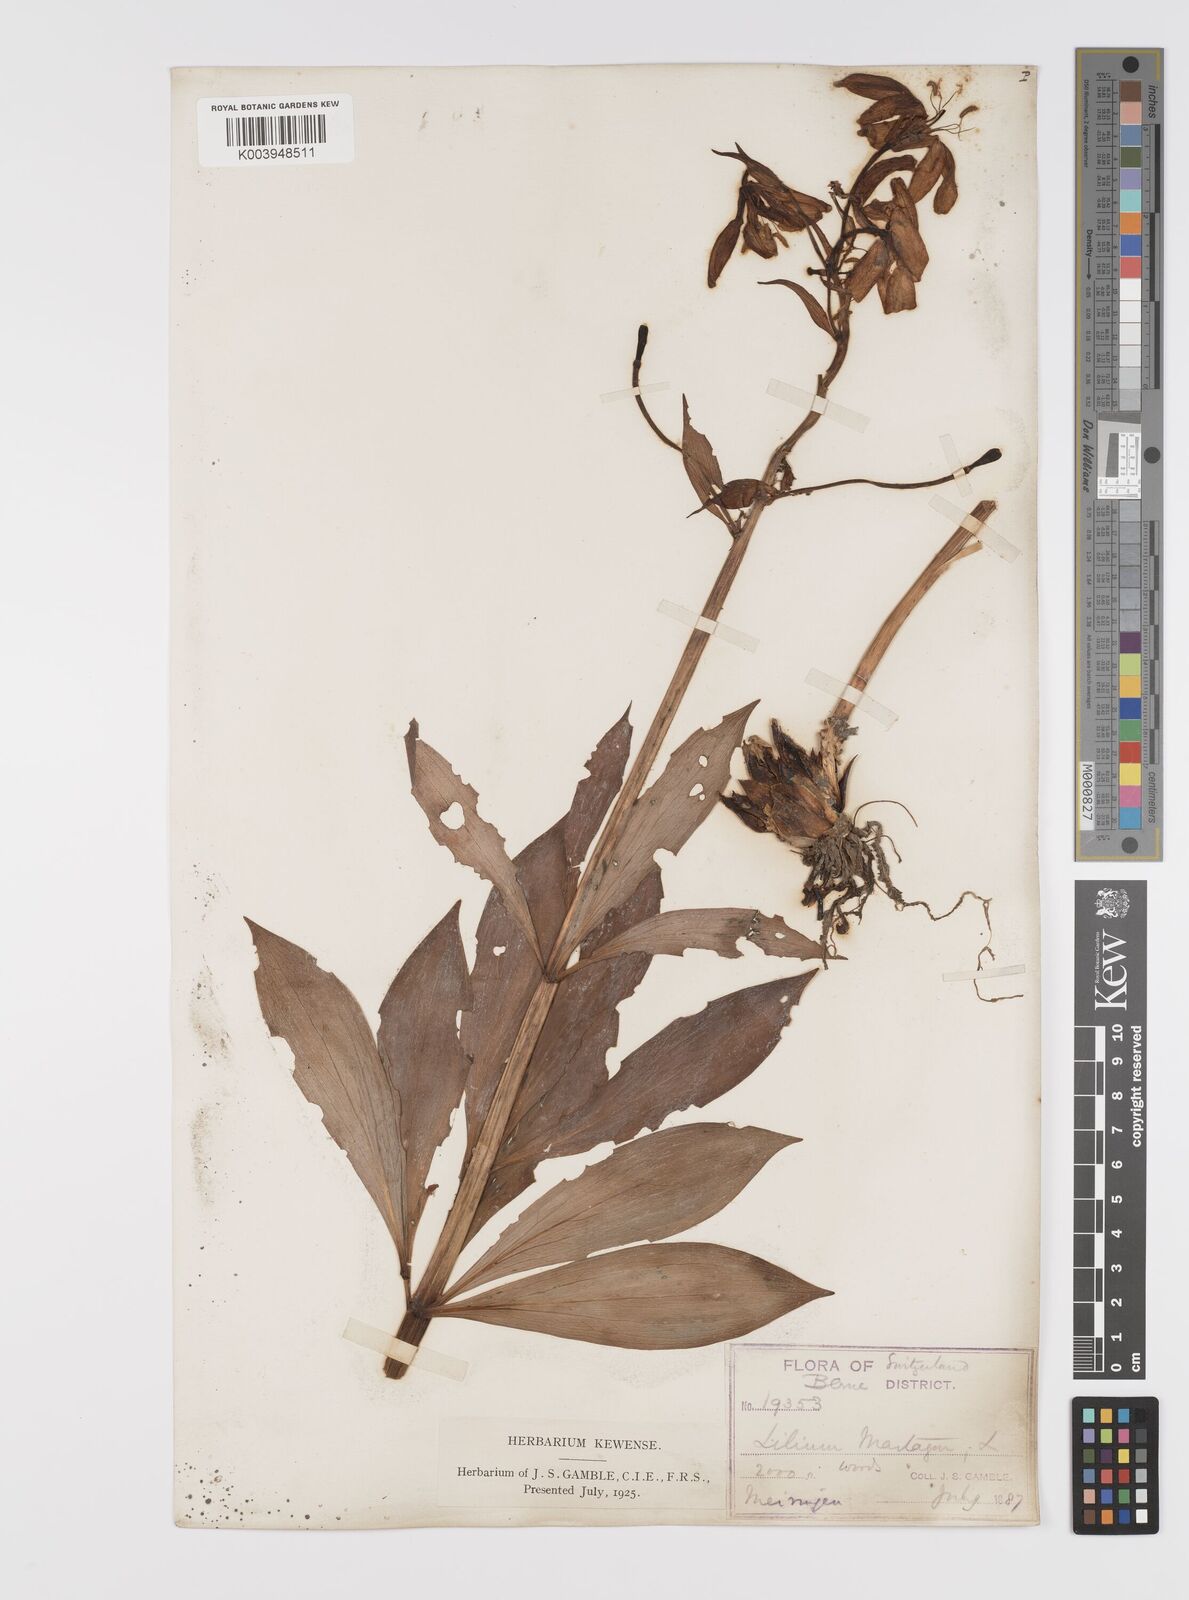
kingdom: Plantae
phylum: Tracheophyta
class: Liliopsida
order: Liliales
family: Liliaceae
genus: Lilium
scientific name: Lilium martagon
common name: Martagon lily
